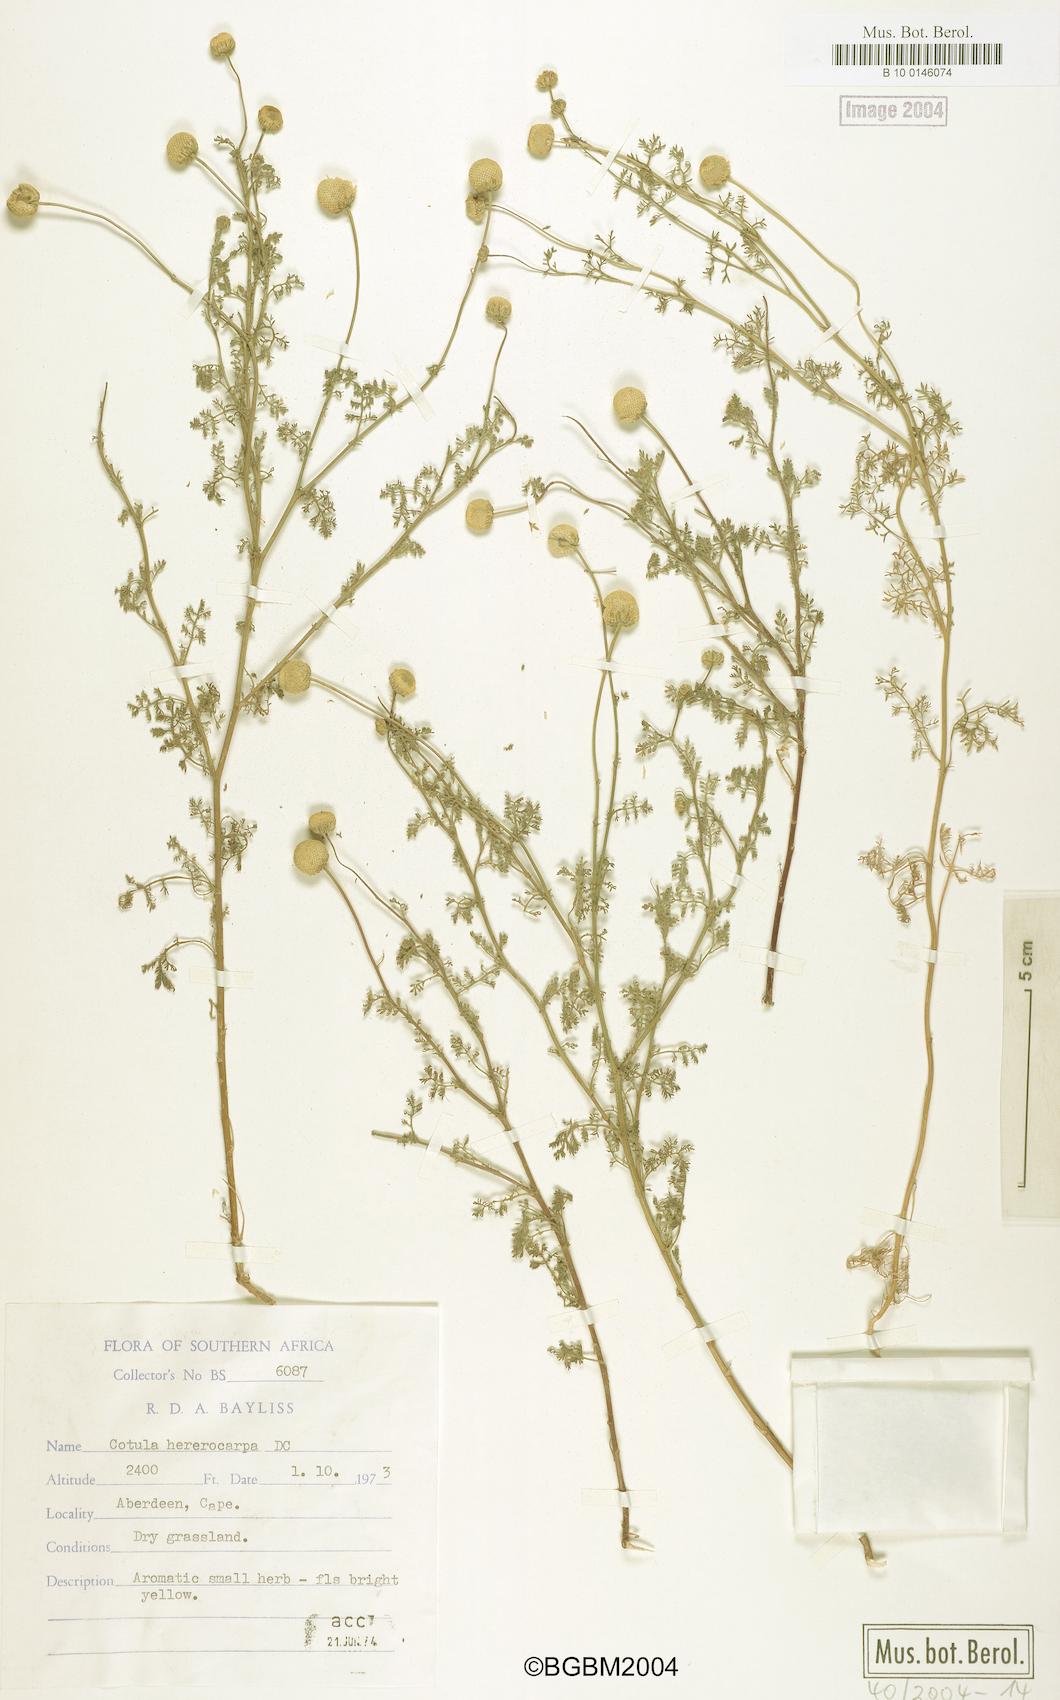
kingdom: Plantae
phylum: Tracheophyta
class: Magnoliopsida
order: Asterales
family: Asteraceae
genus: Cotula
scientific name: Cotula heterocarpa
